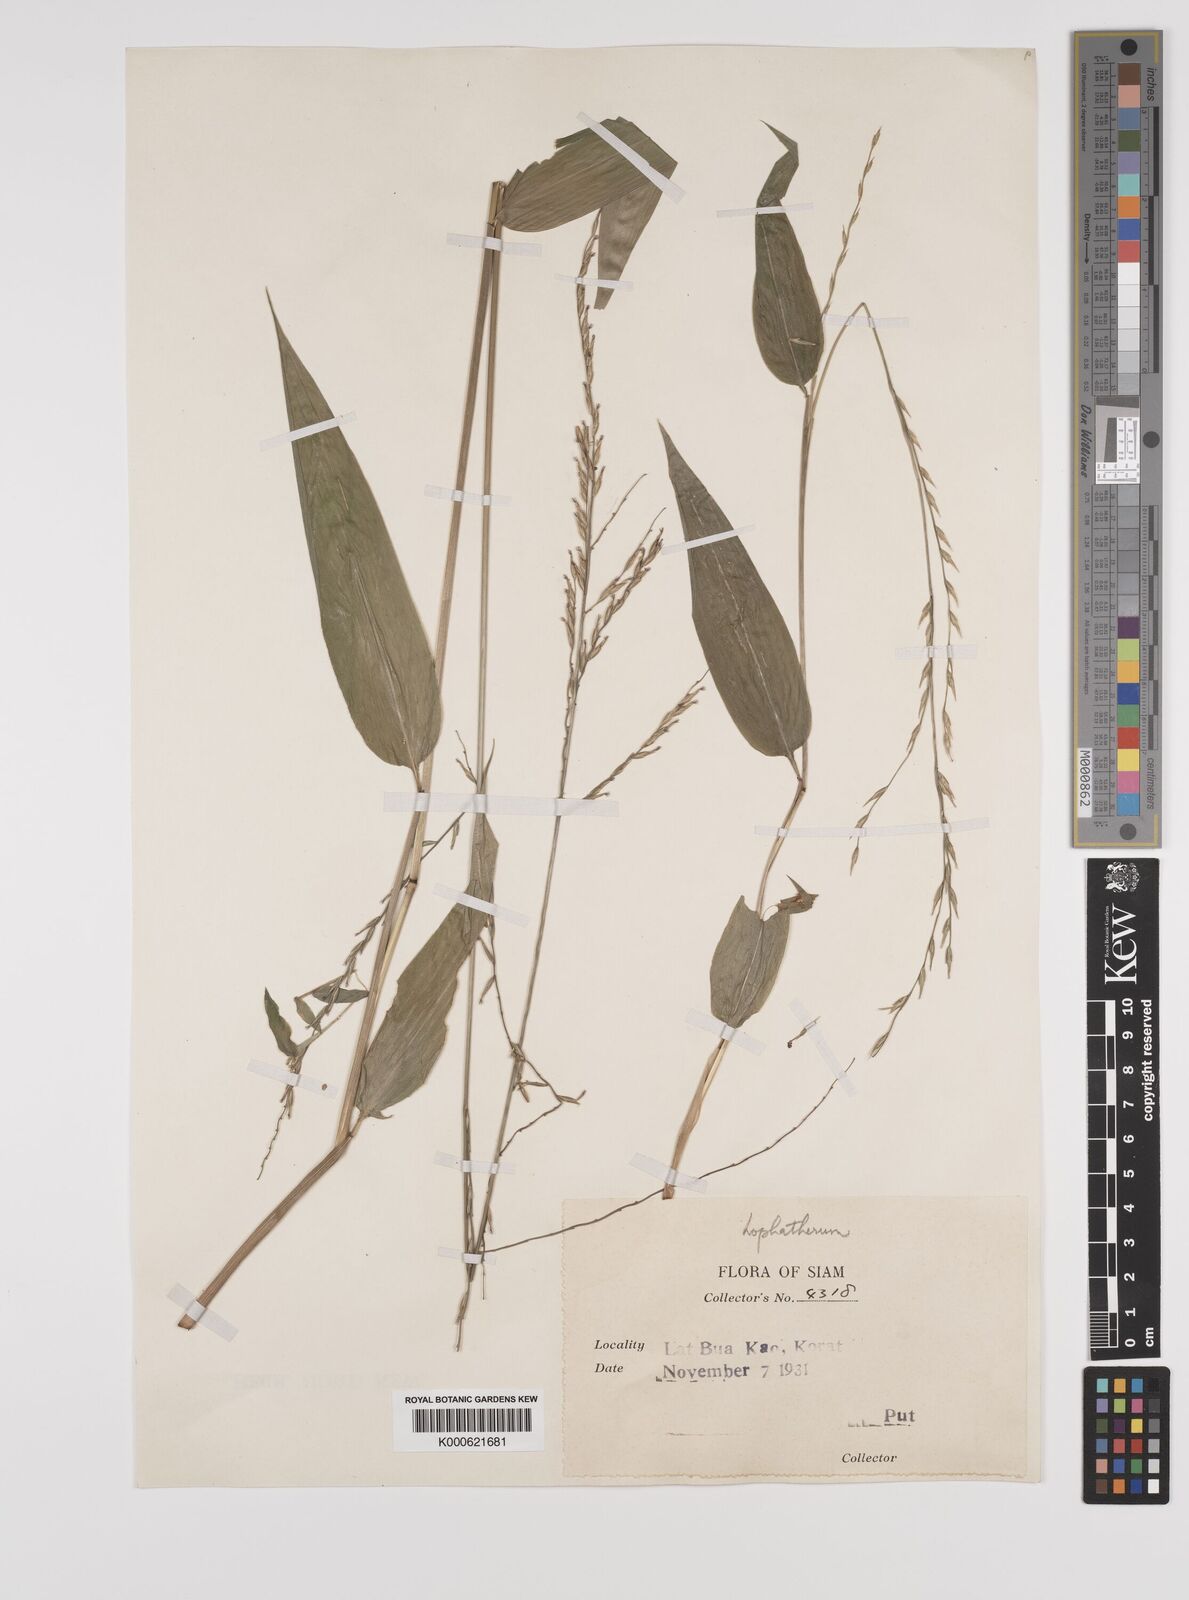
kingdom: Plantae
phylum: Tracheophyta
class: Liliopsida
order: Poales
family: Poaceae
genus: Lophatherum
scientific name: Lophatherum gracile
